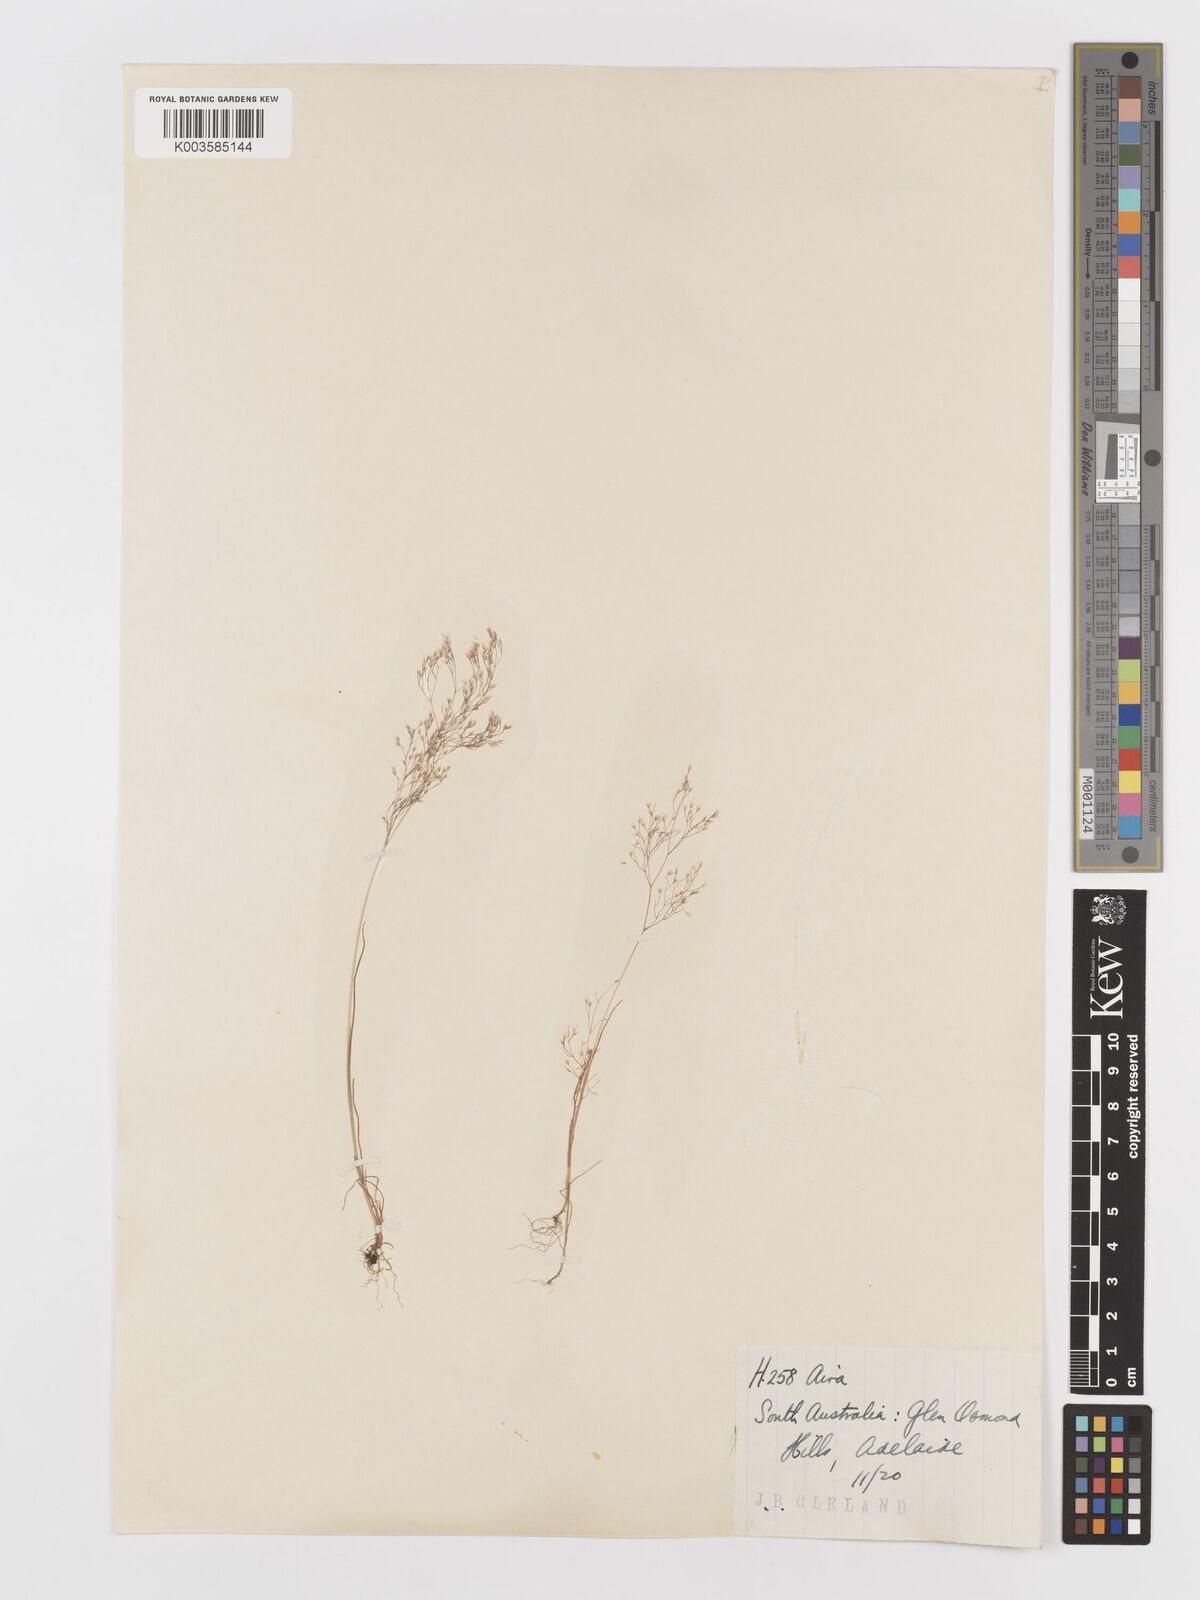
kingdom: Plantae
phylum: Tracheophyta
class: Liliopsida
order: Poales
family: Poaceae
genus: Aira
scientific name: Aira cupaniana
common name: Silver hairgrass
